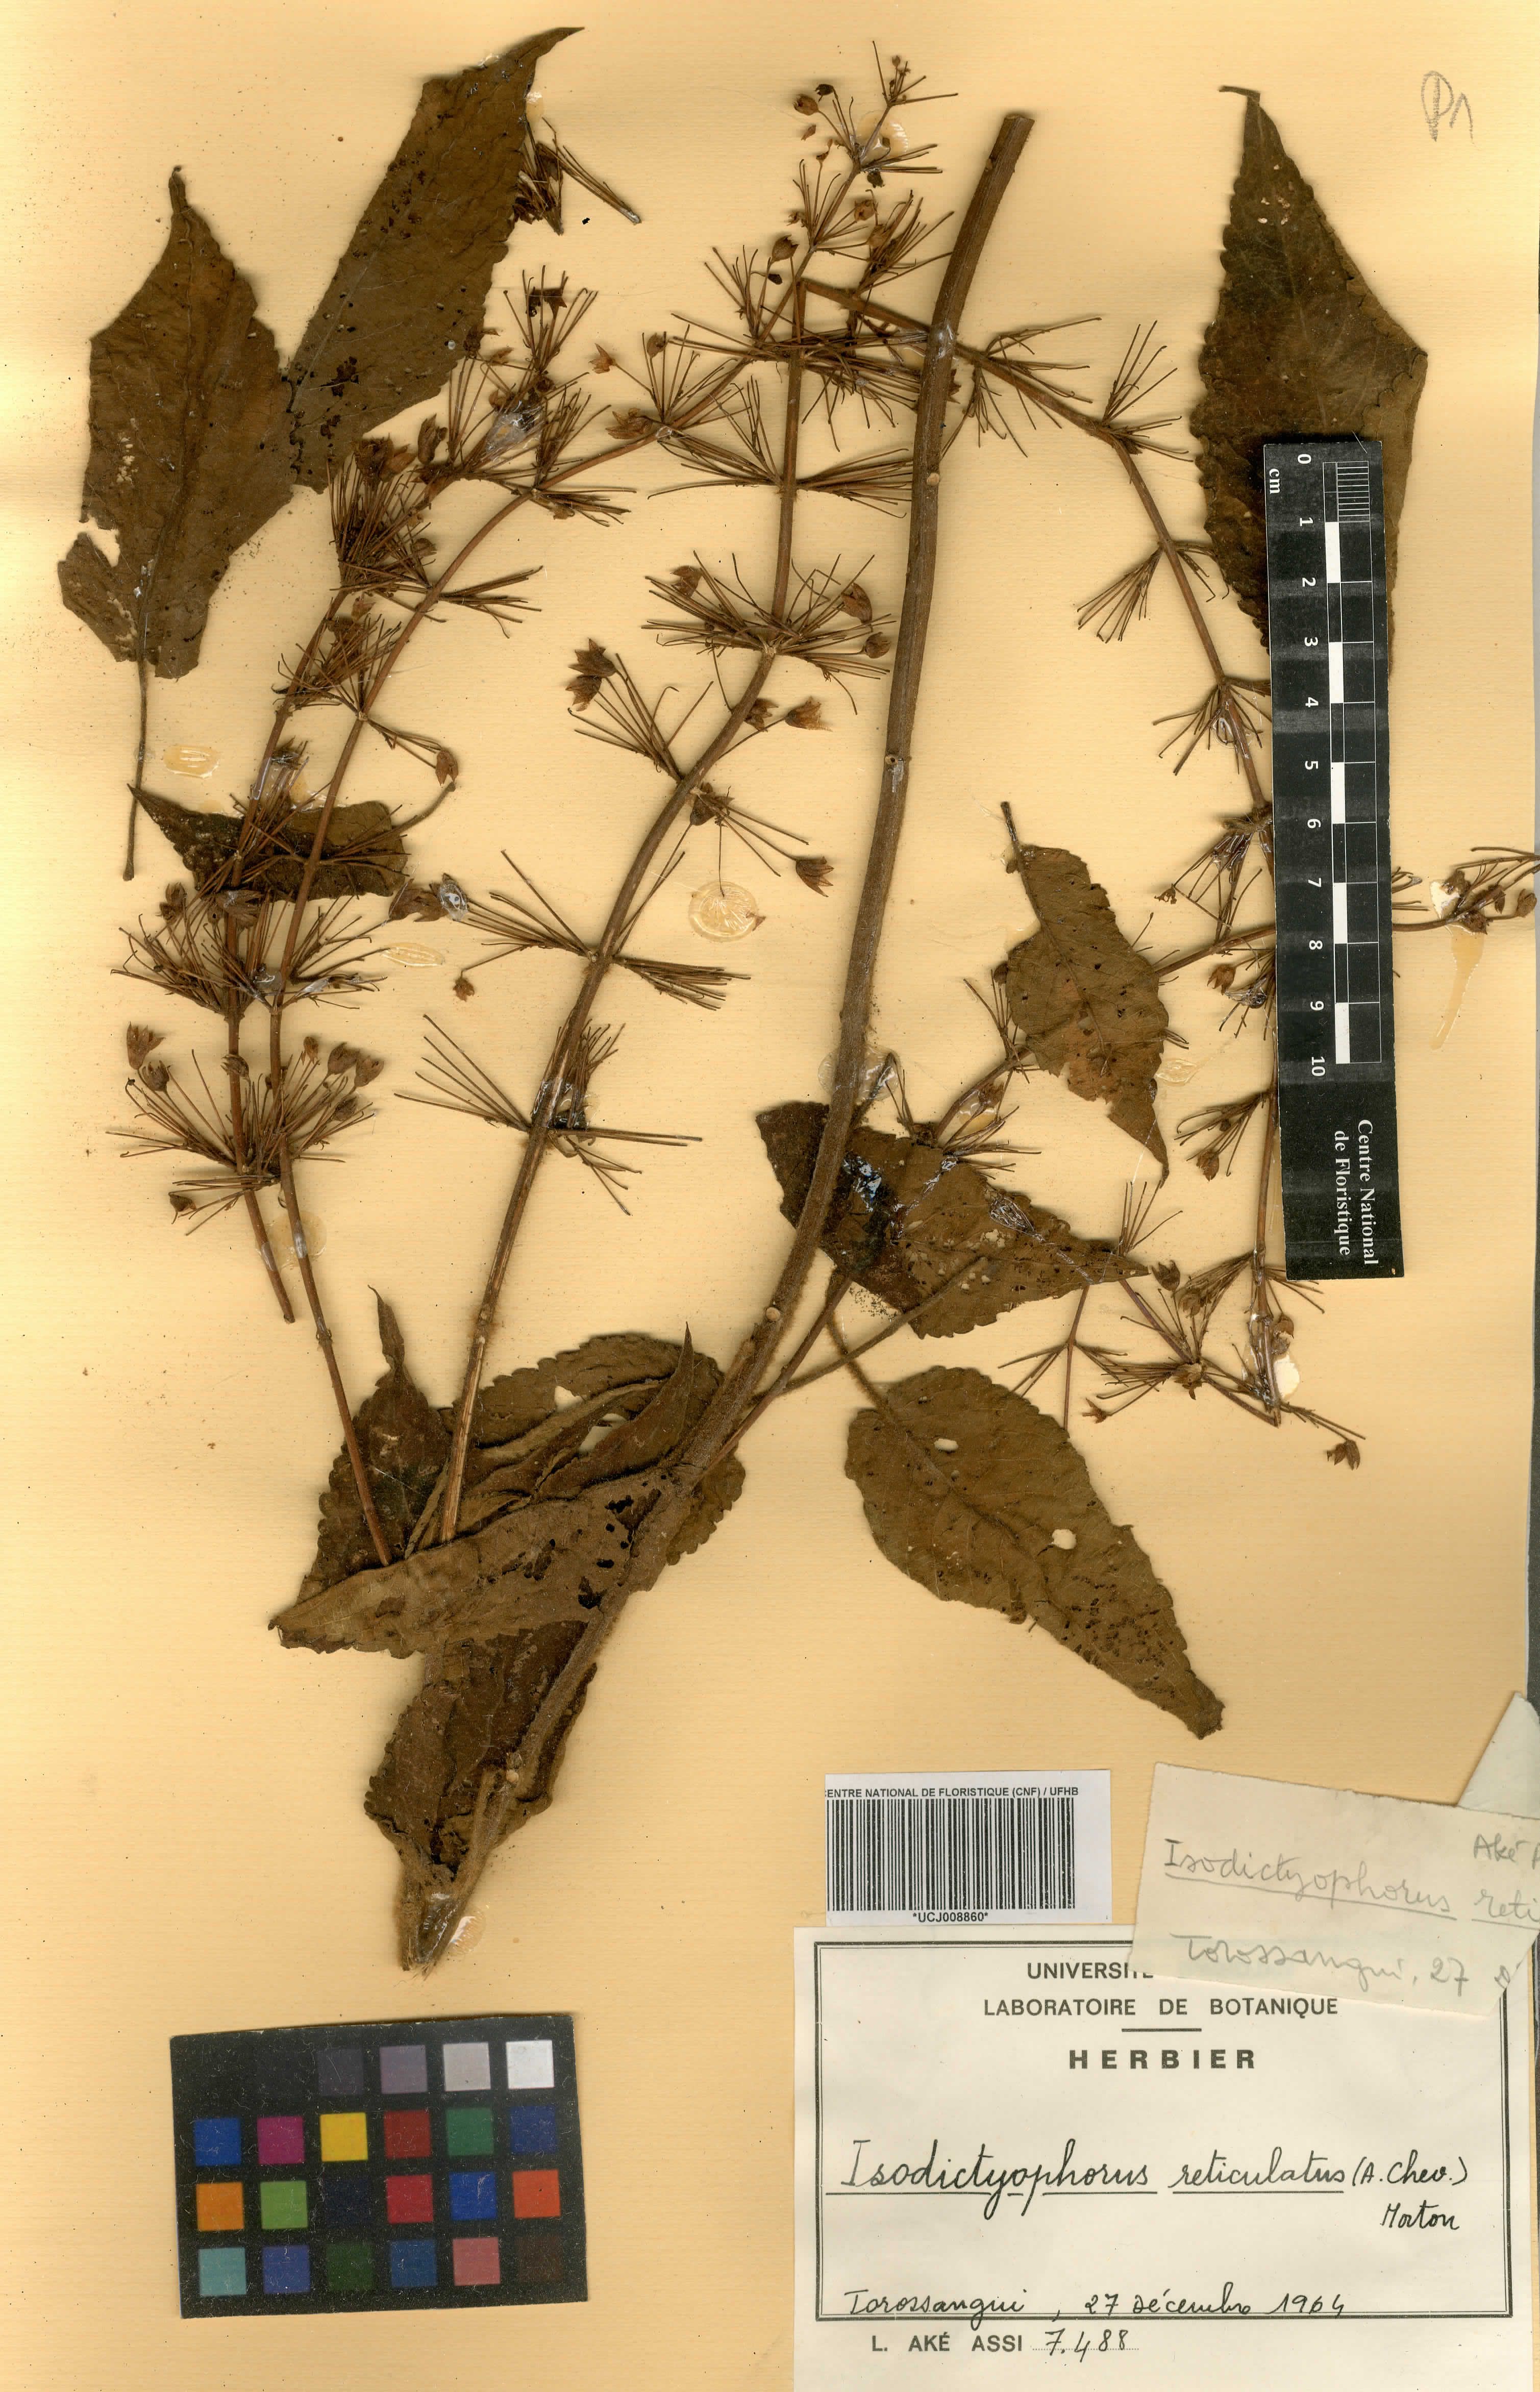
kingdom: Plantae
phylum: Tracheophyta
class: Magnoliopsida
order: Lamiales
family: Lamiaceae
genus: Coleus
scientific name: Coleus reticulatus
